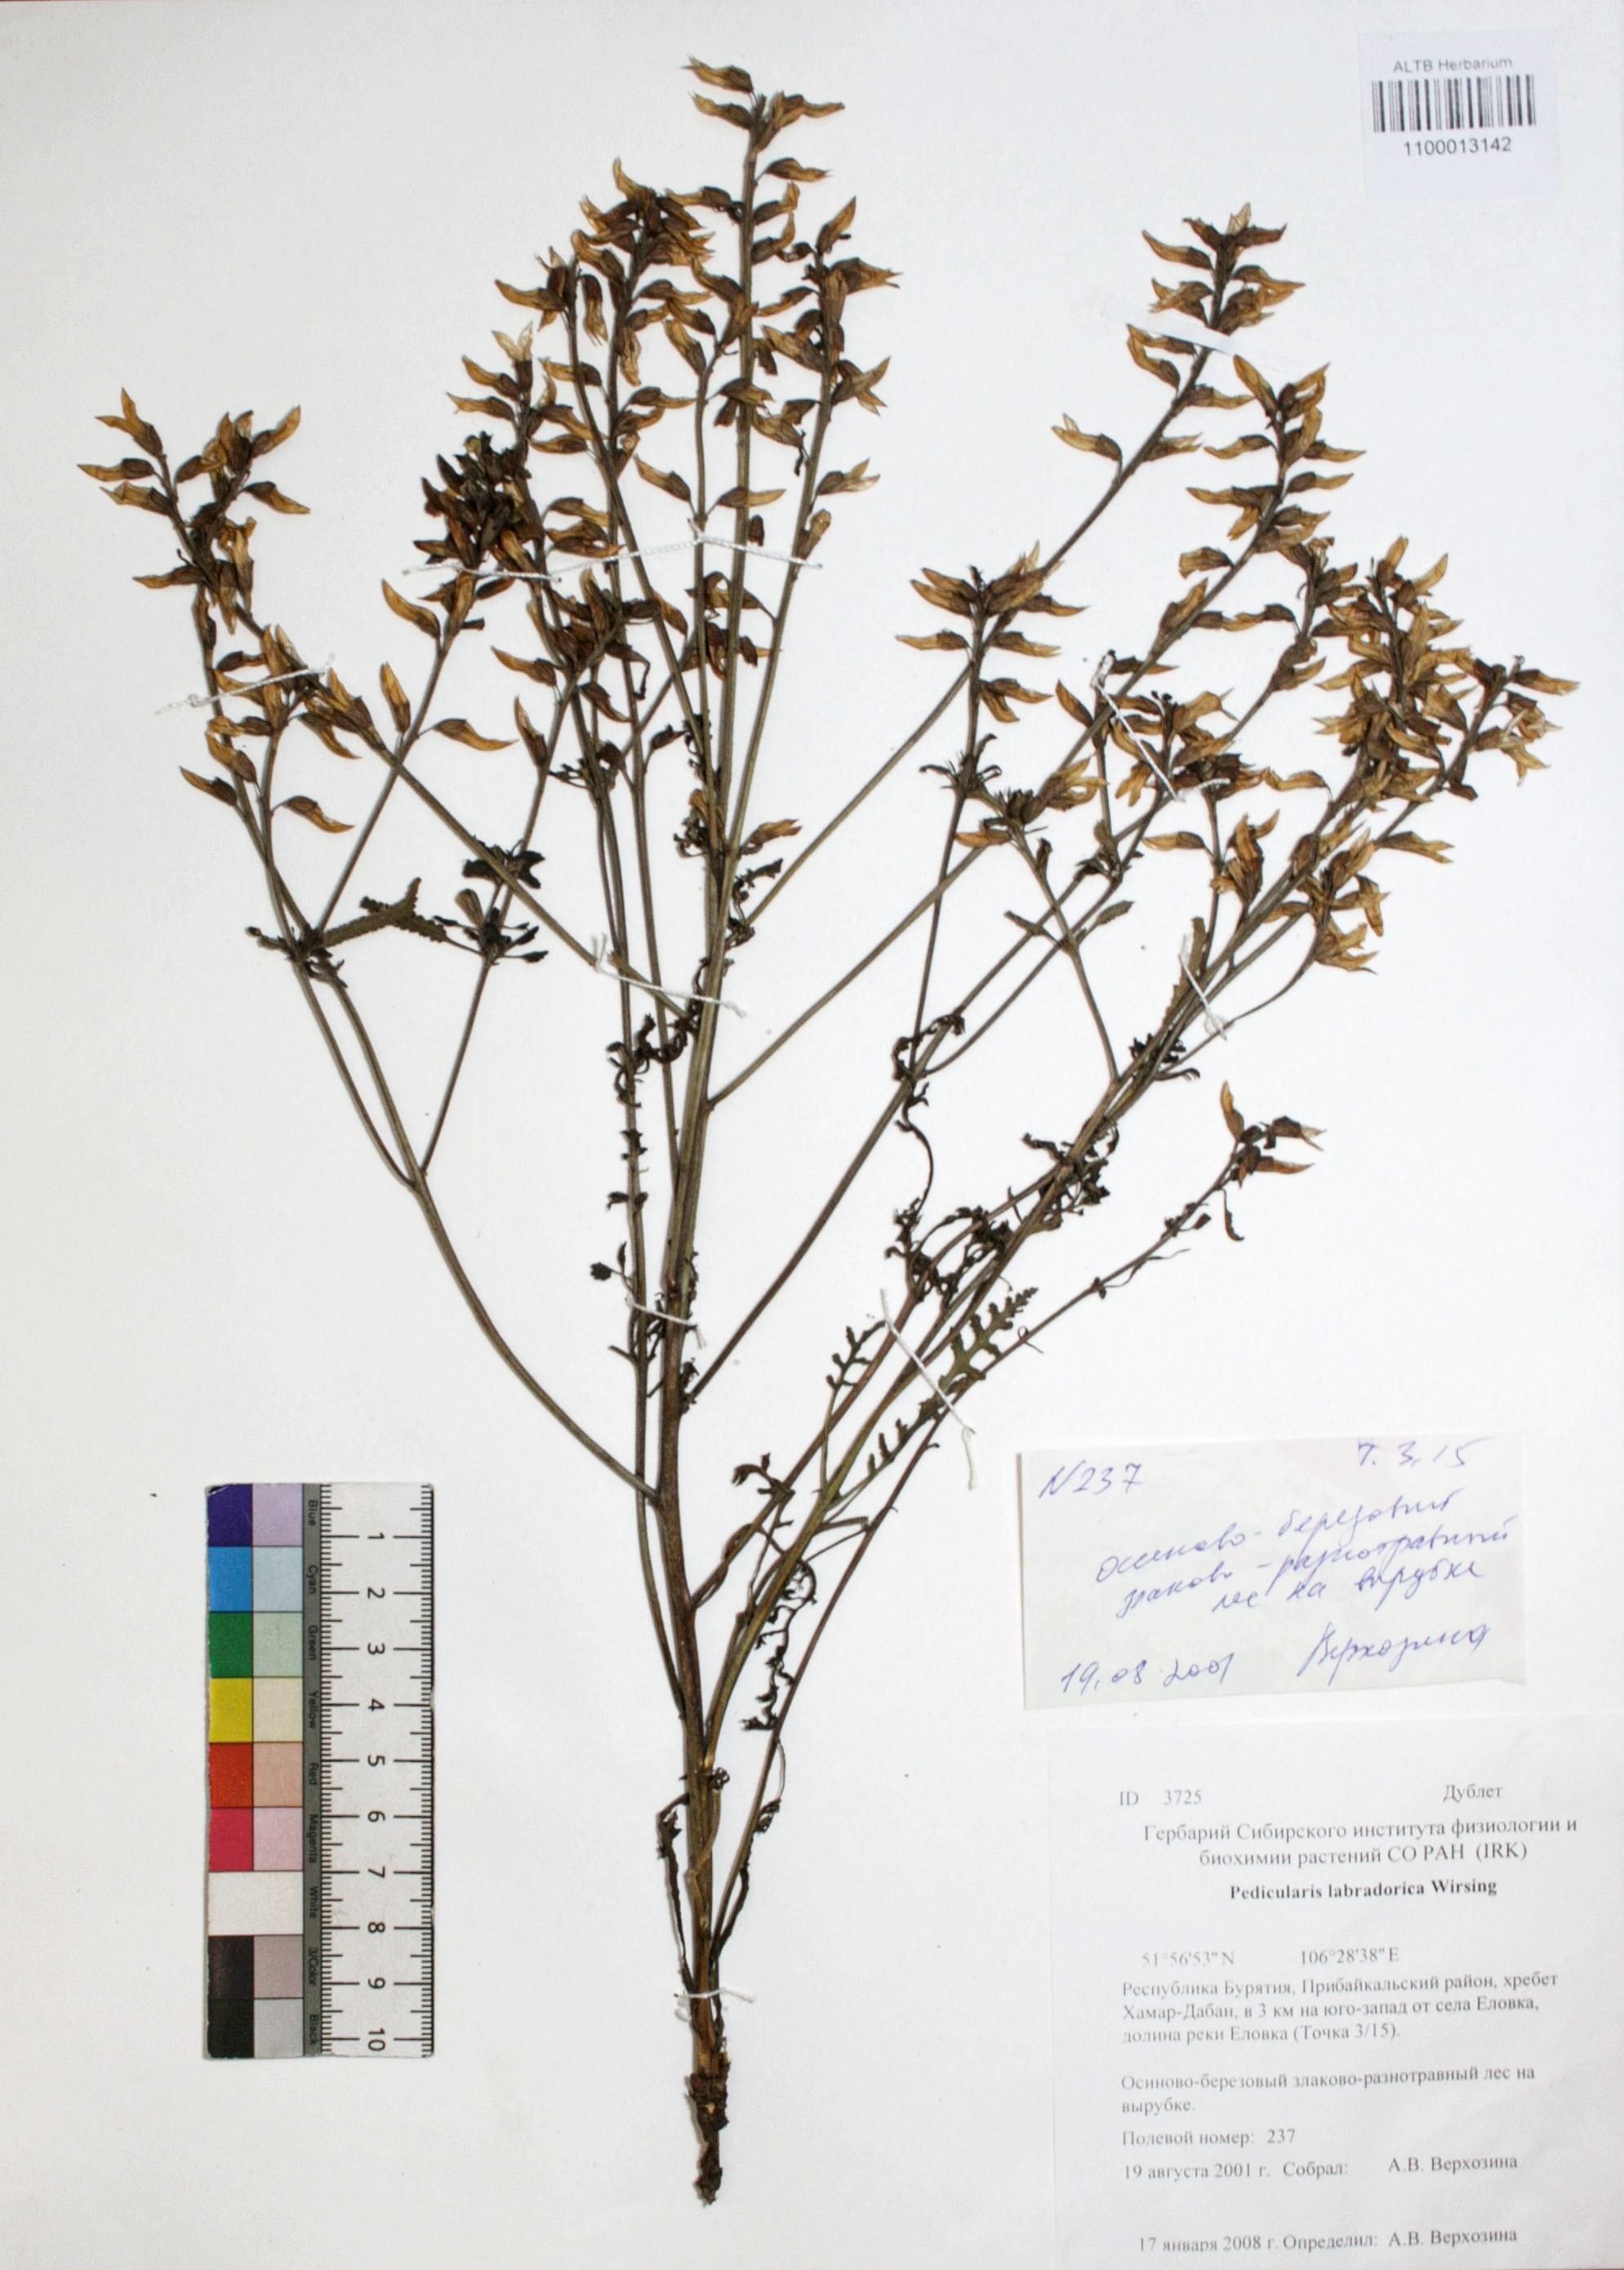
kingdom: Plantae
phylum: Tracheophyta
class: Magnoliopsida
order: Lamiales
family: Orobanchaceae
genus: Pedicularis
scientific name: Pedicularis labradorica
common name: Labrador lousewort
